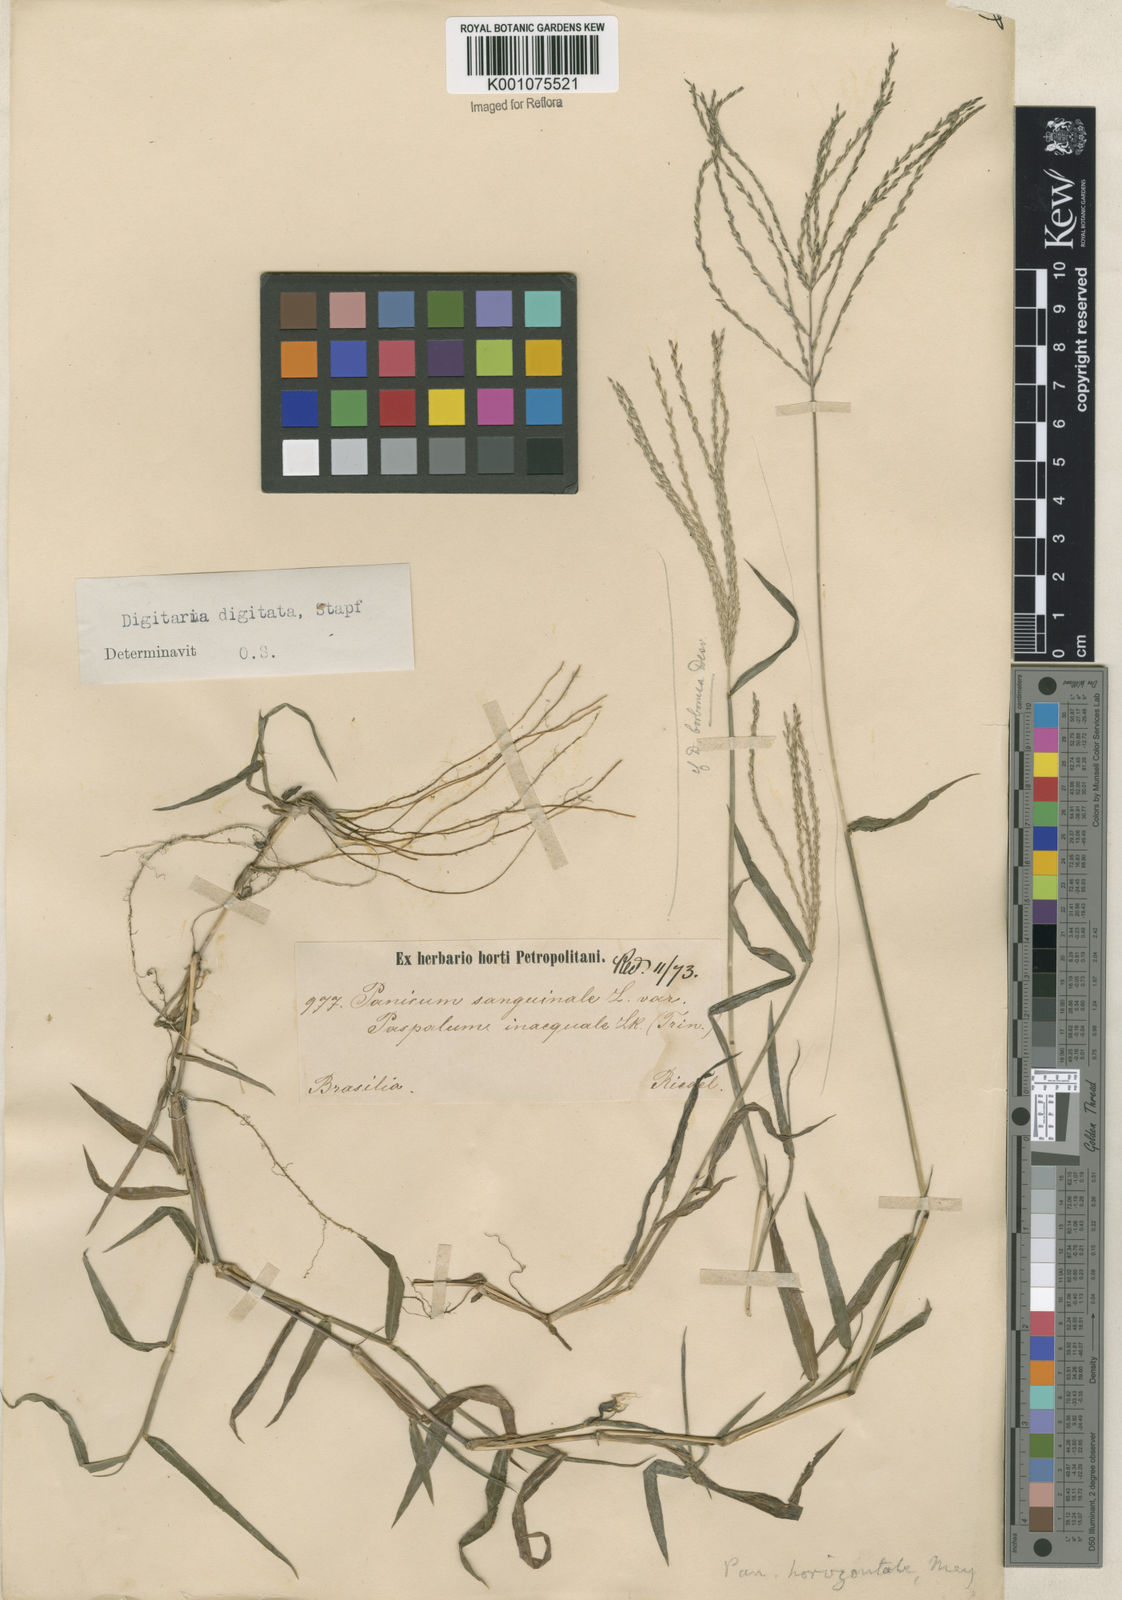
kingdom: Plantae
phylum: Tracheophyta
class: Liliopsida
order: Poales
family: Poaceae
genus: Digitaria
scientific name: Digitaria horizontalis
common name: Jamaican crabgrass
